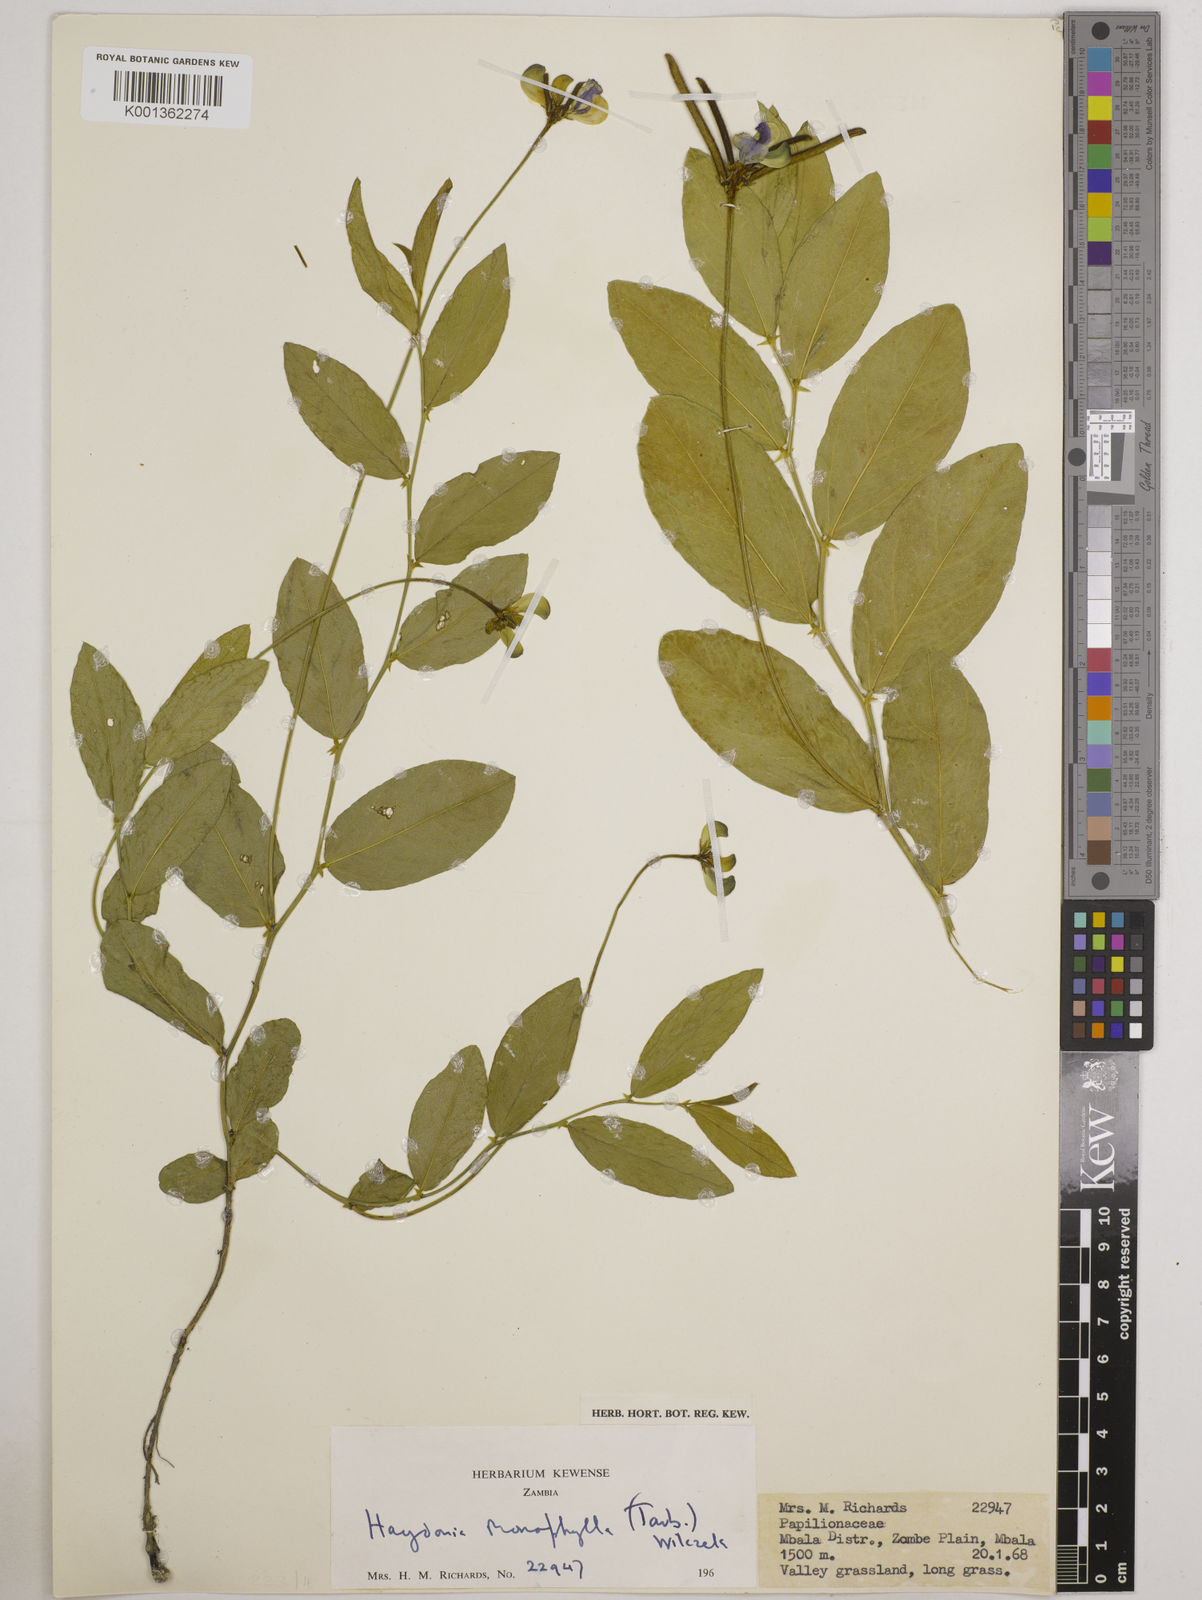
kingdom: Plantae
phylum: Tracheophyta
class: Magnoliopsida
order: Fabales
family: Fabaceae
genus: Vigna
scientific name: Vigna monophylla
